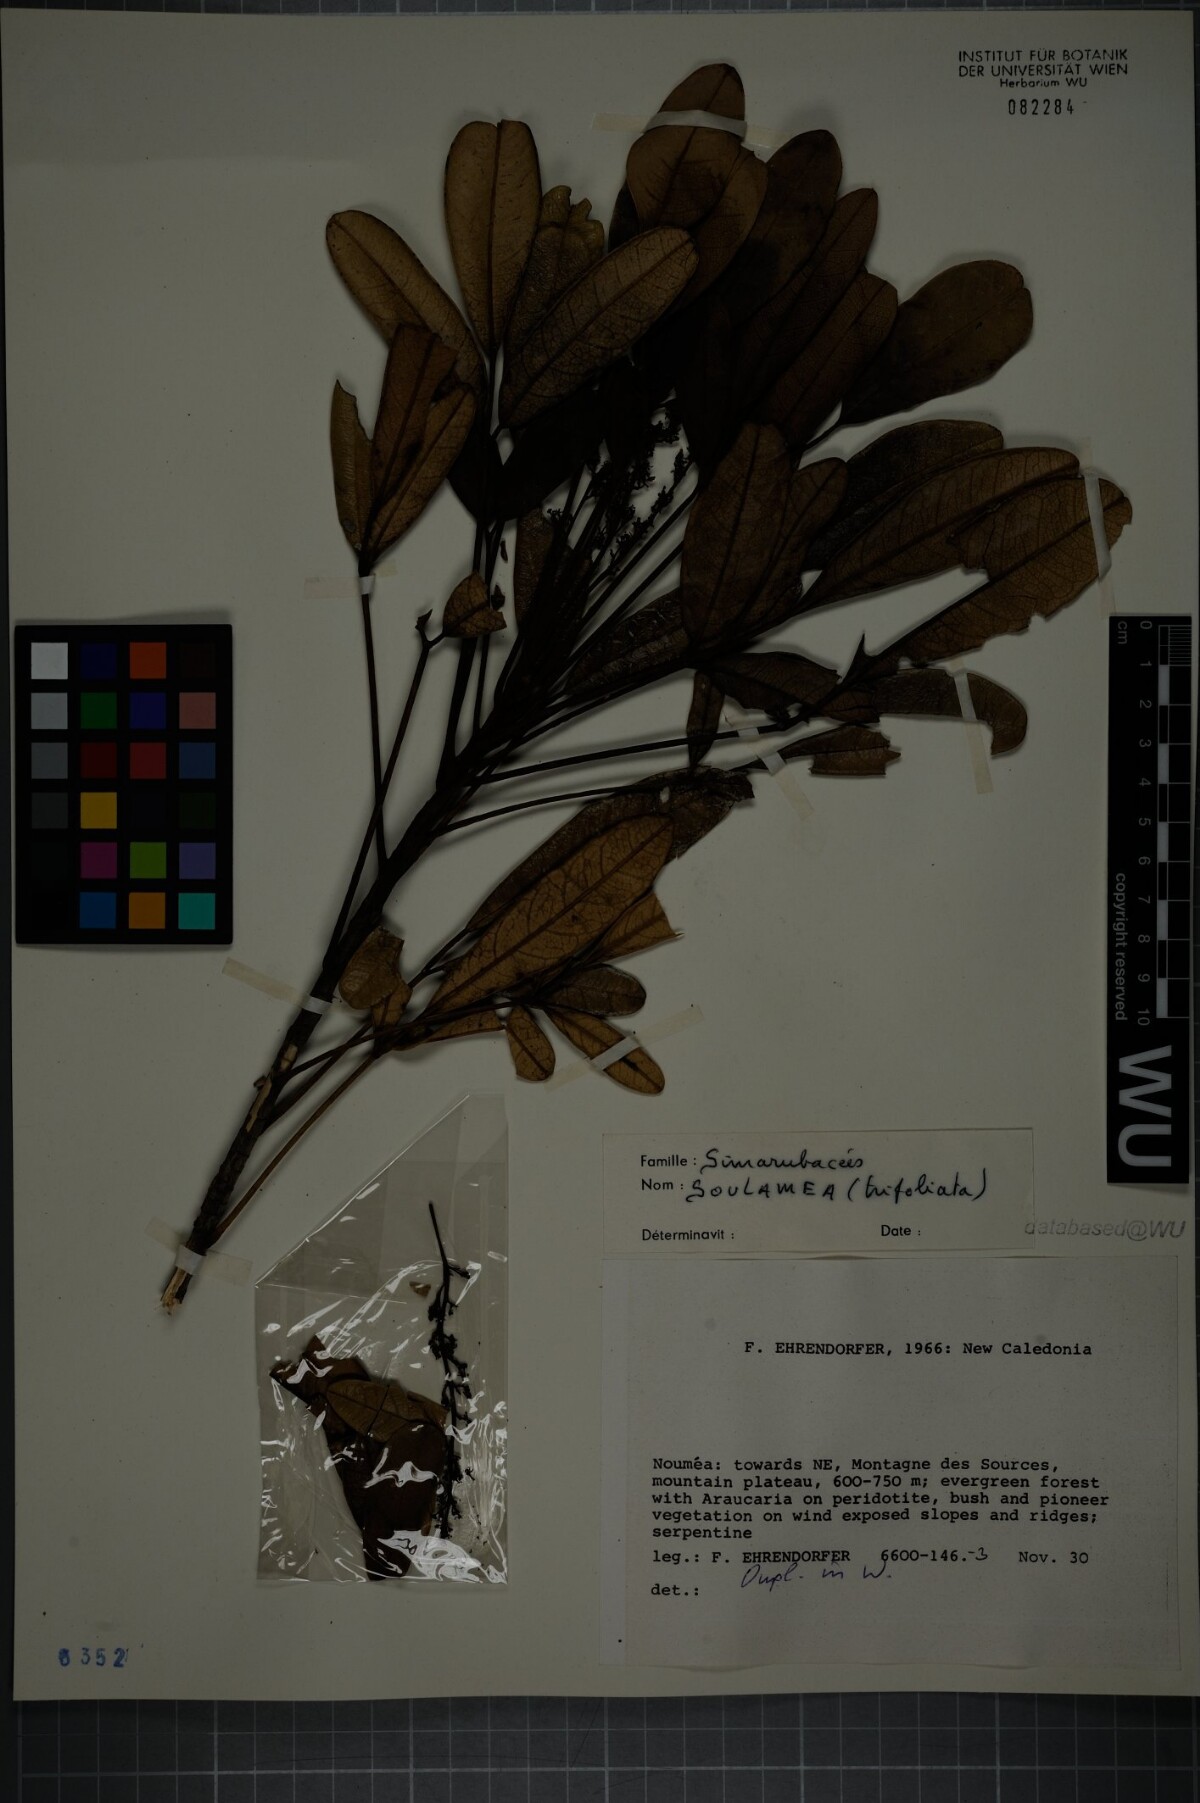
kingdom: Plantae
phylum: Tracheophyta
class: Magnoliopsida
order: Sapindales
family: Simaroubaceae
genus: Soulamea
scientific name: Soulamea trifoliata
